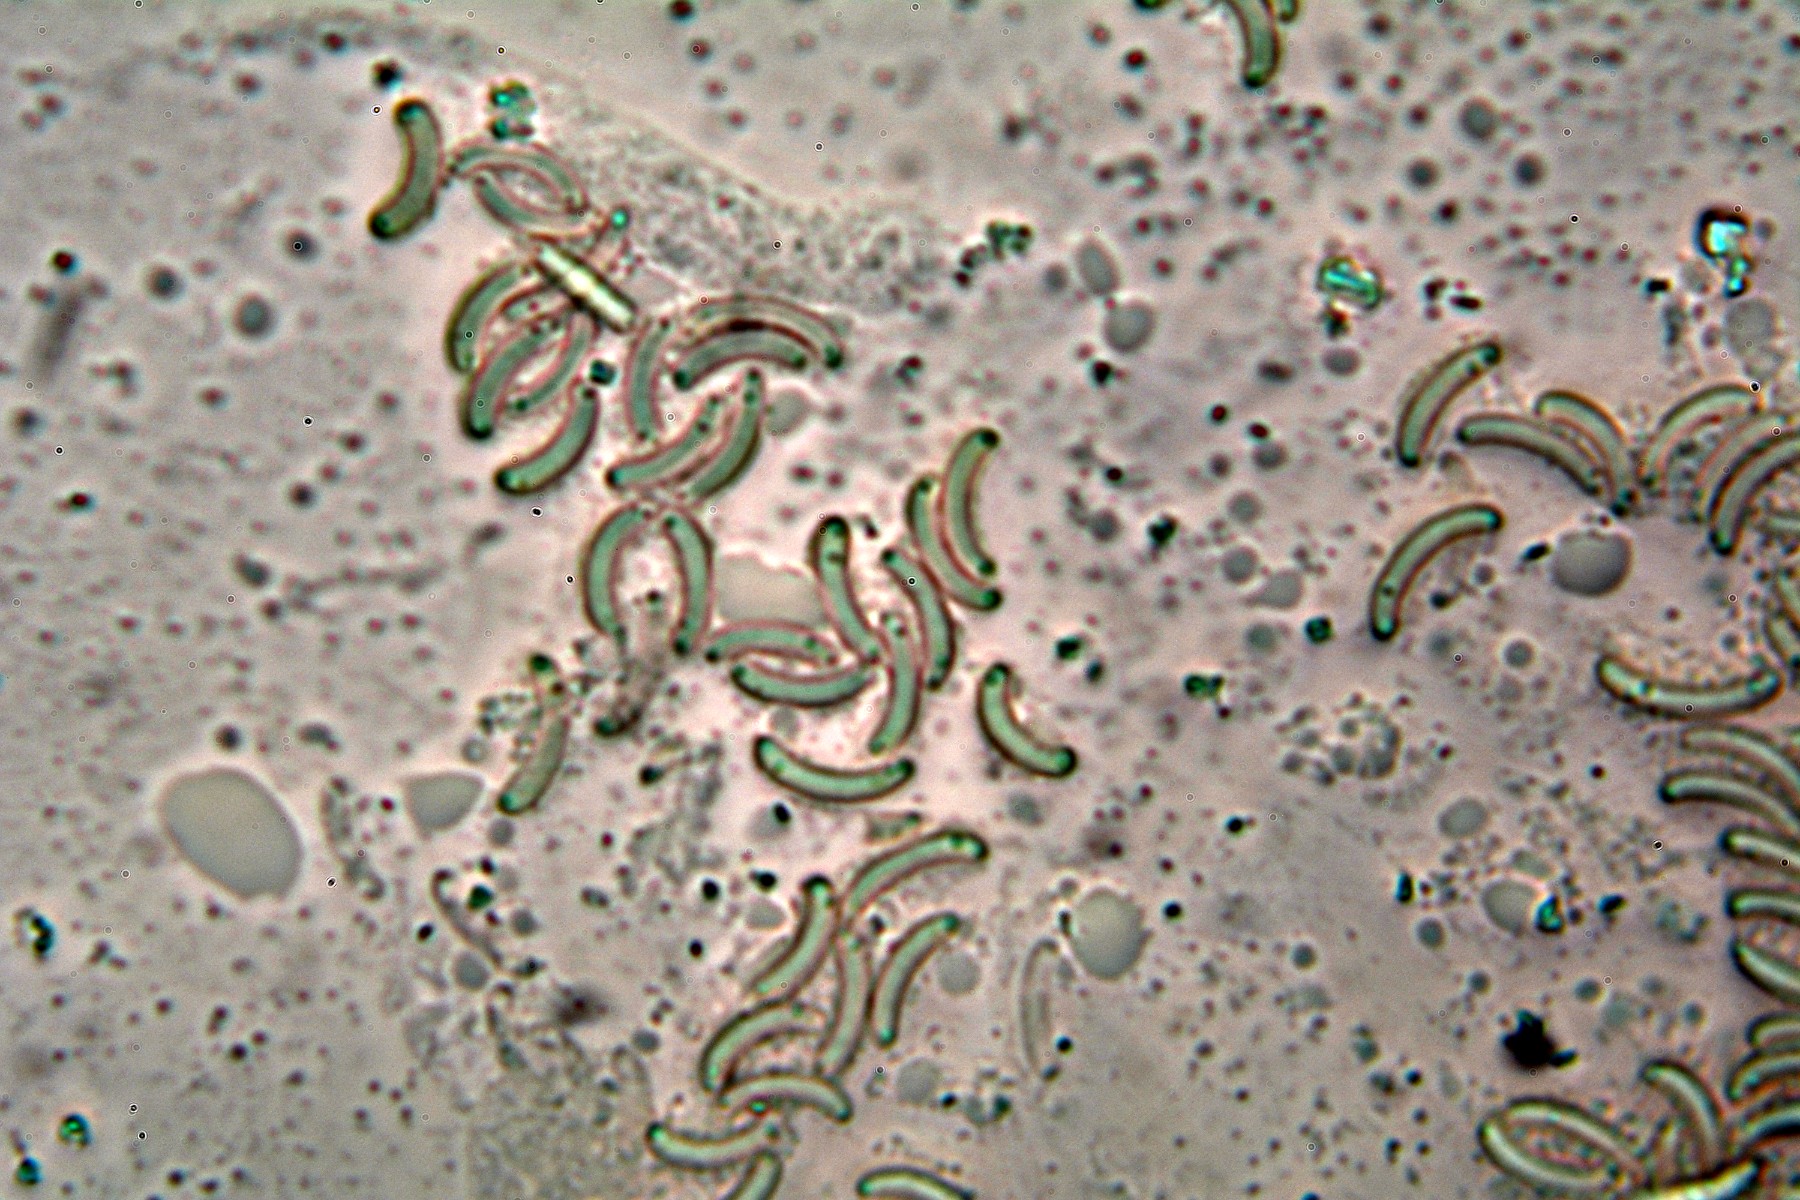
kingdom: Fungi
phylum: Ascomycota
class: Sordariomycetes
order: Xylariales
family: Diatrypaceae
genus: Eutypella
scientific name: Eutypella prunastri
